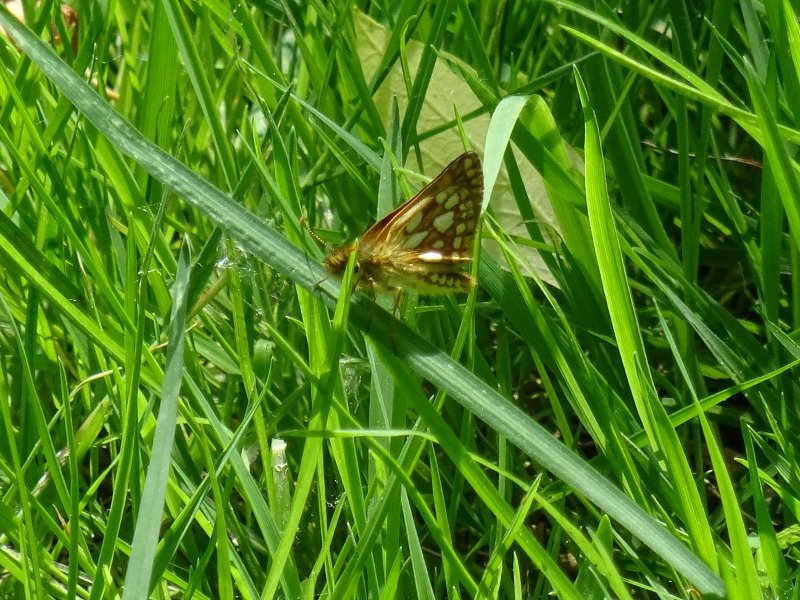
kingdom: Animalia
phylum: Arthropoda
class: Insecta
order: Lepidoptera
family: Hesperiidae
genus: Carterocephalus
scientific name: Carterocephalus palaemon
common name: Chequered Skipper
